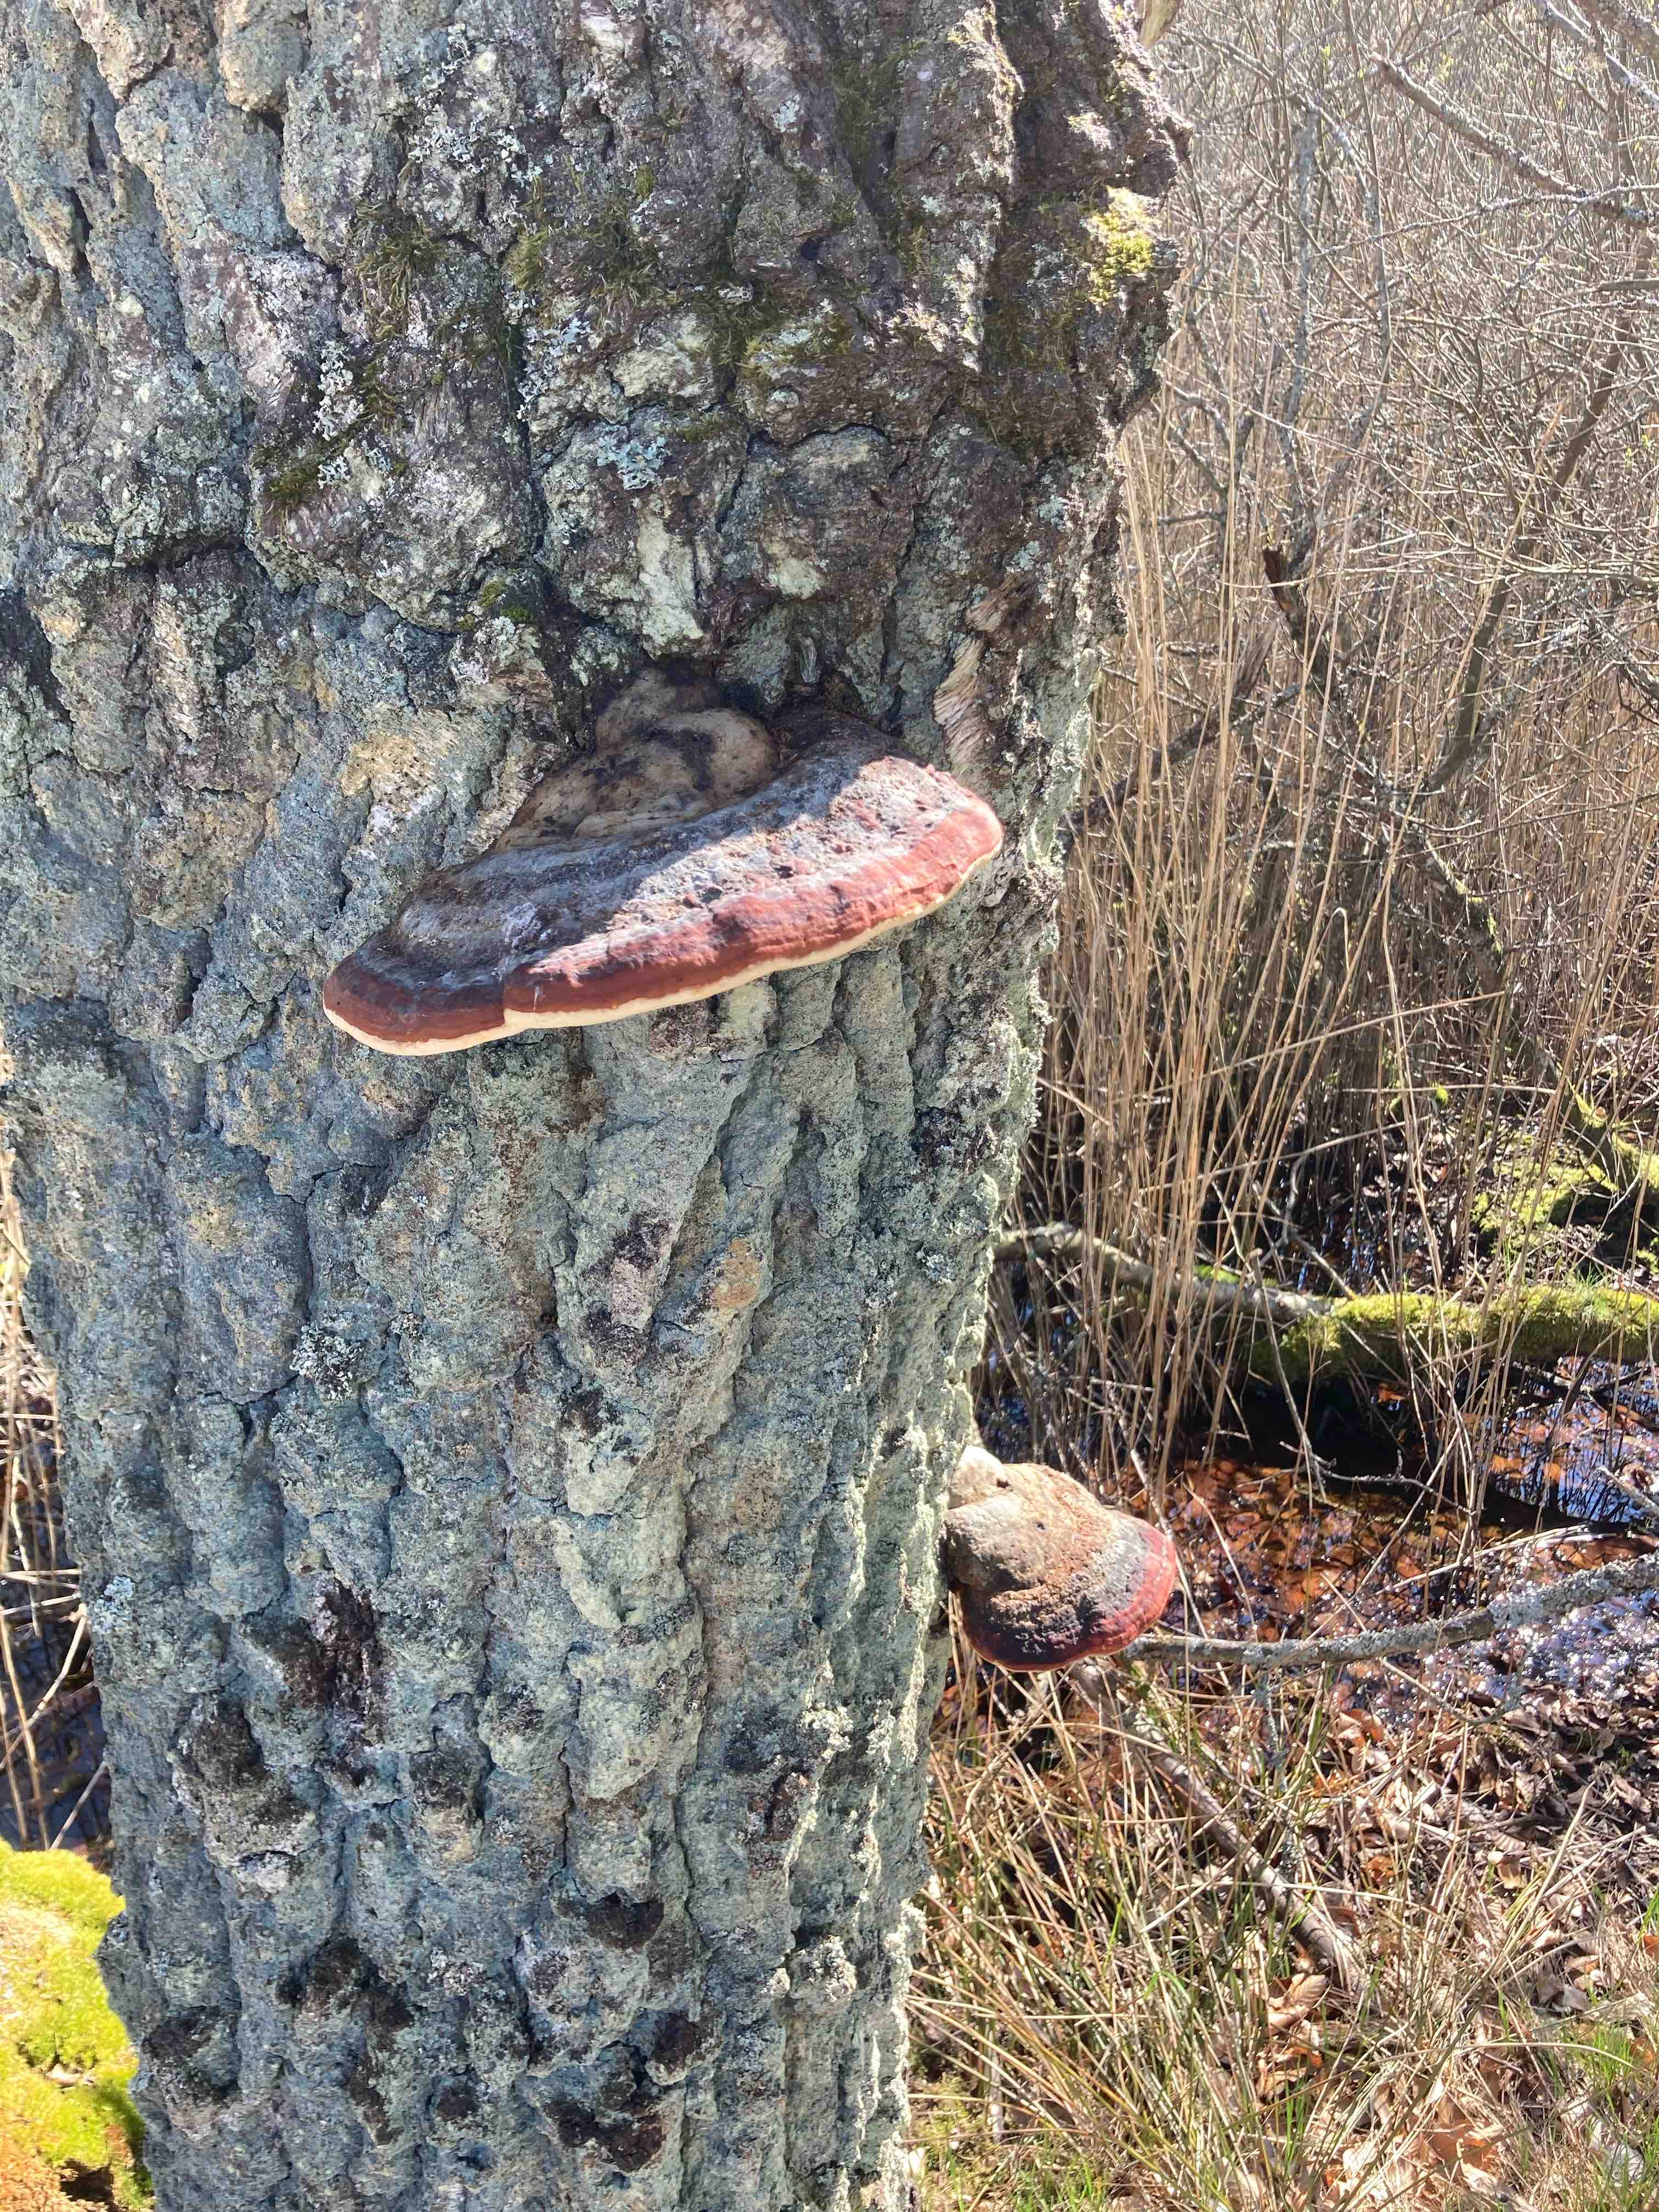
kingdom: Fungi
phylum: Basidiomycota
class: Agaricomycetes
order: Polyporales
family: Fomitopsidaceae
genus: Fomitopsis
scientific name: Fomitopsis pinicola
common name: randbæltet hovporesvamp
